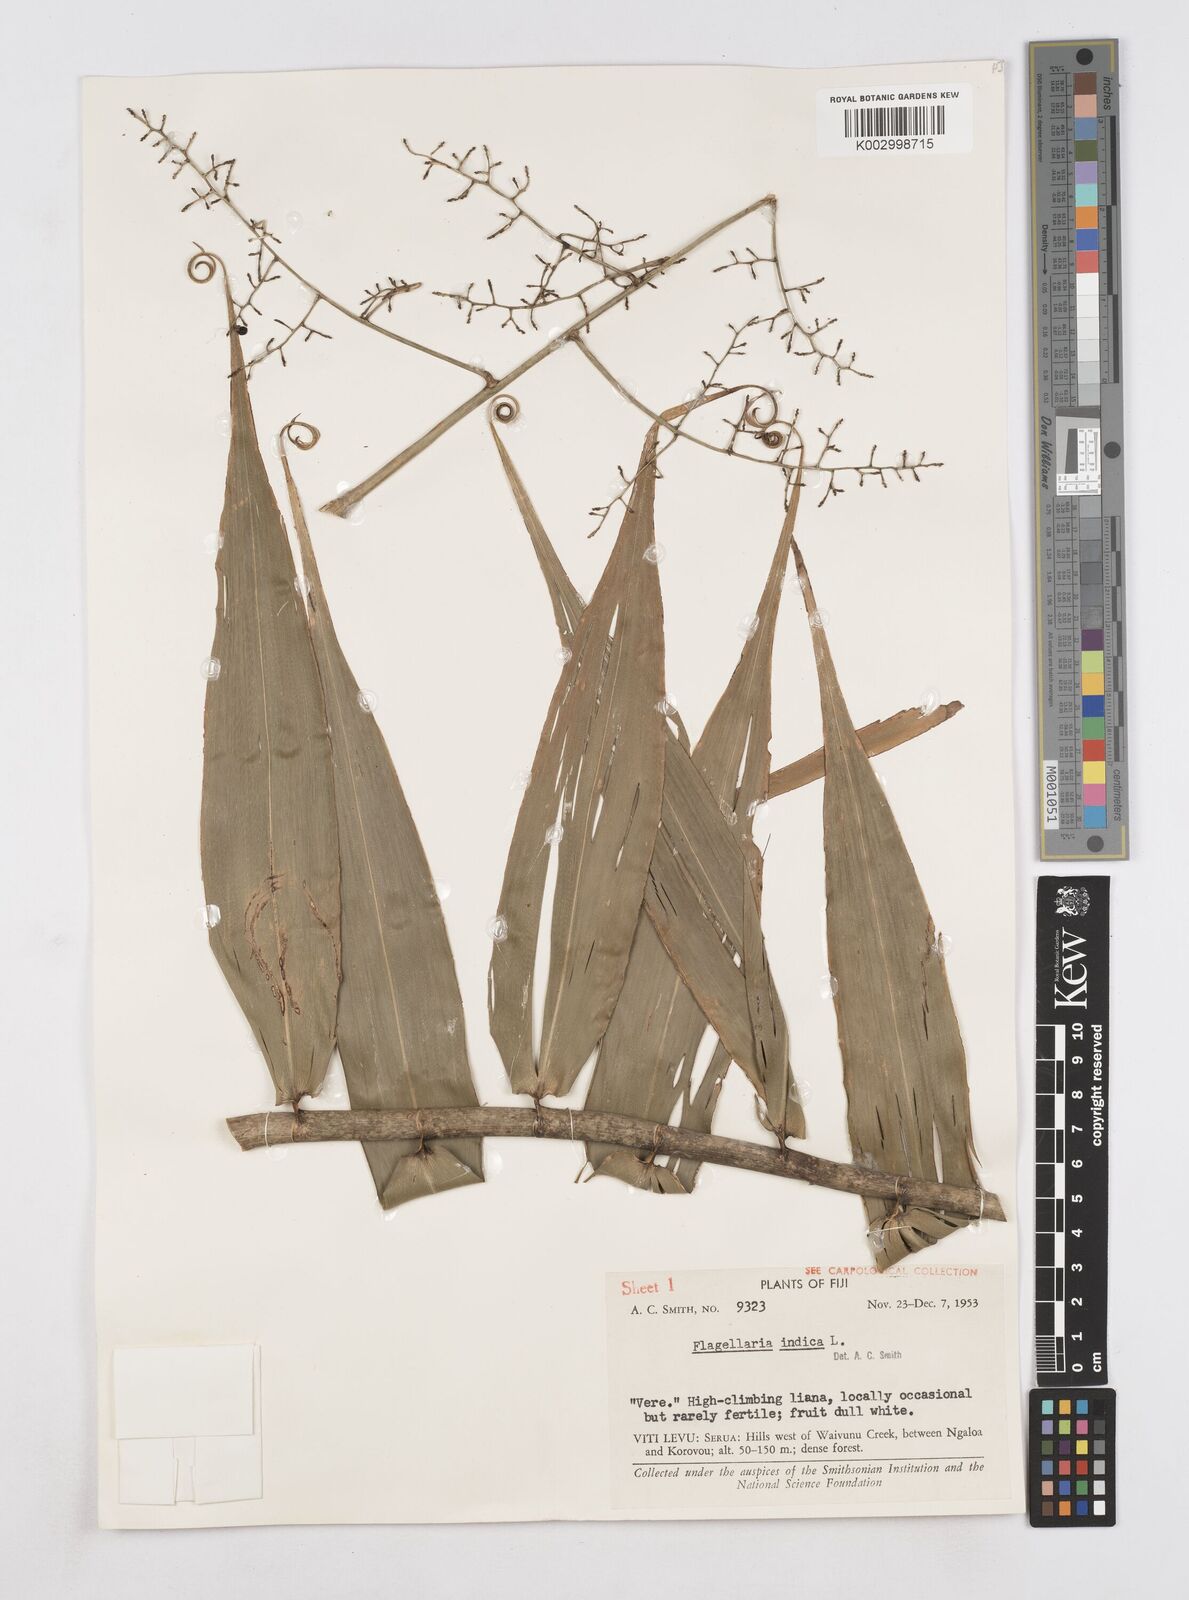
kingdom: Plantae
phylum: Tracheophyta
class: Liliopsida
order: Poales
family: Flagellariaceae
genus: Flagellaria
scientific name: Flagellaria indica
